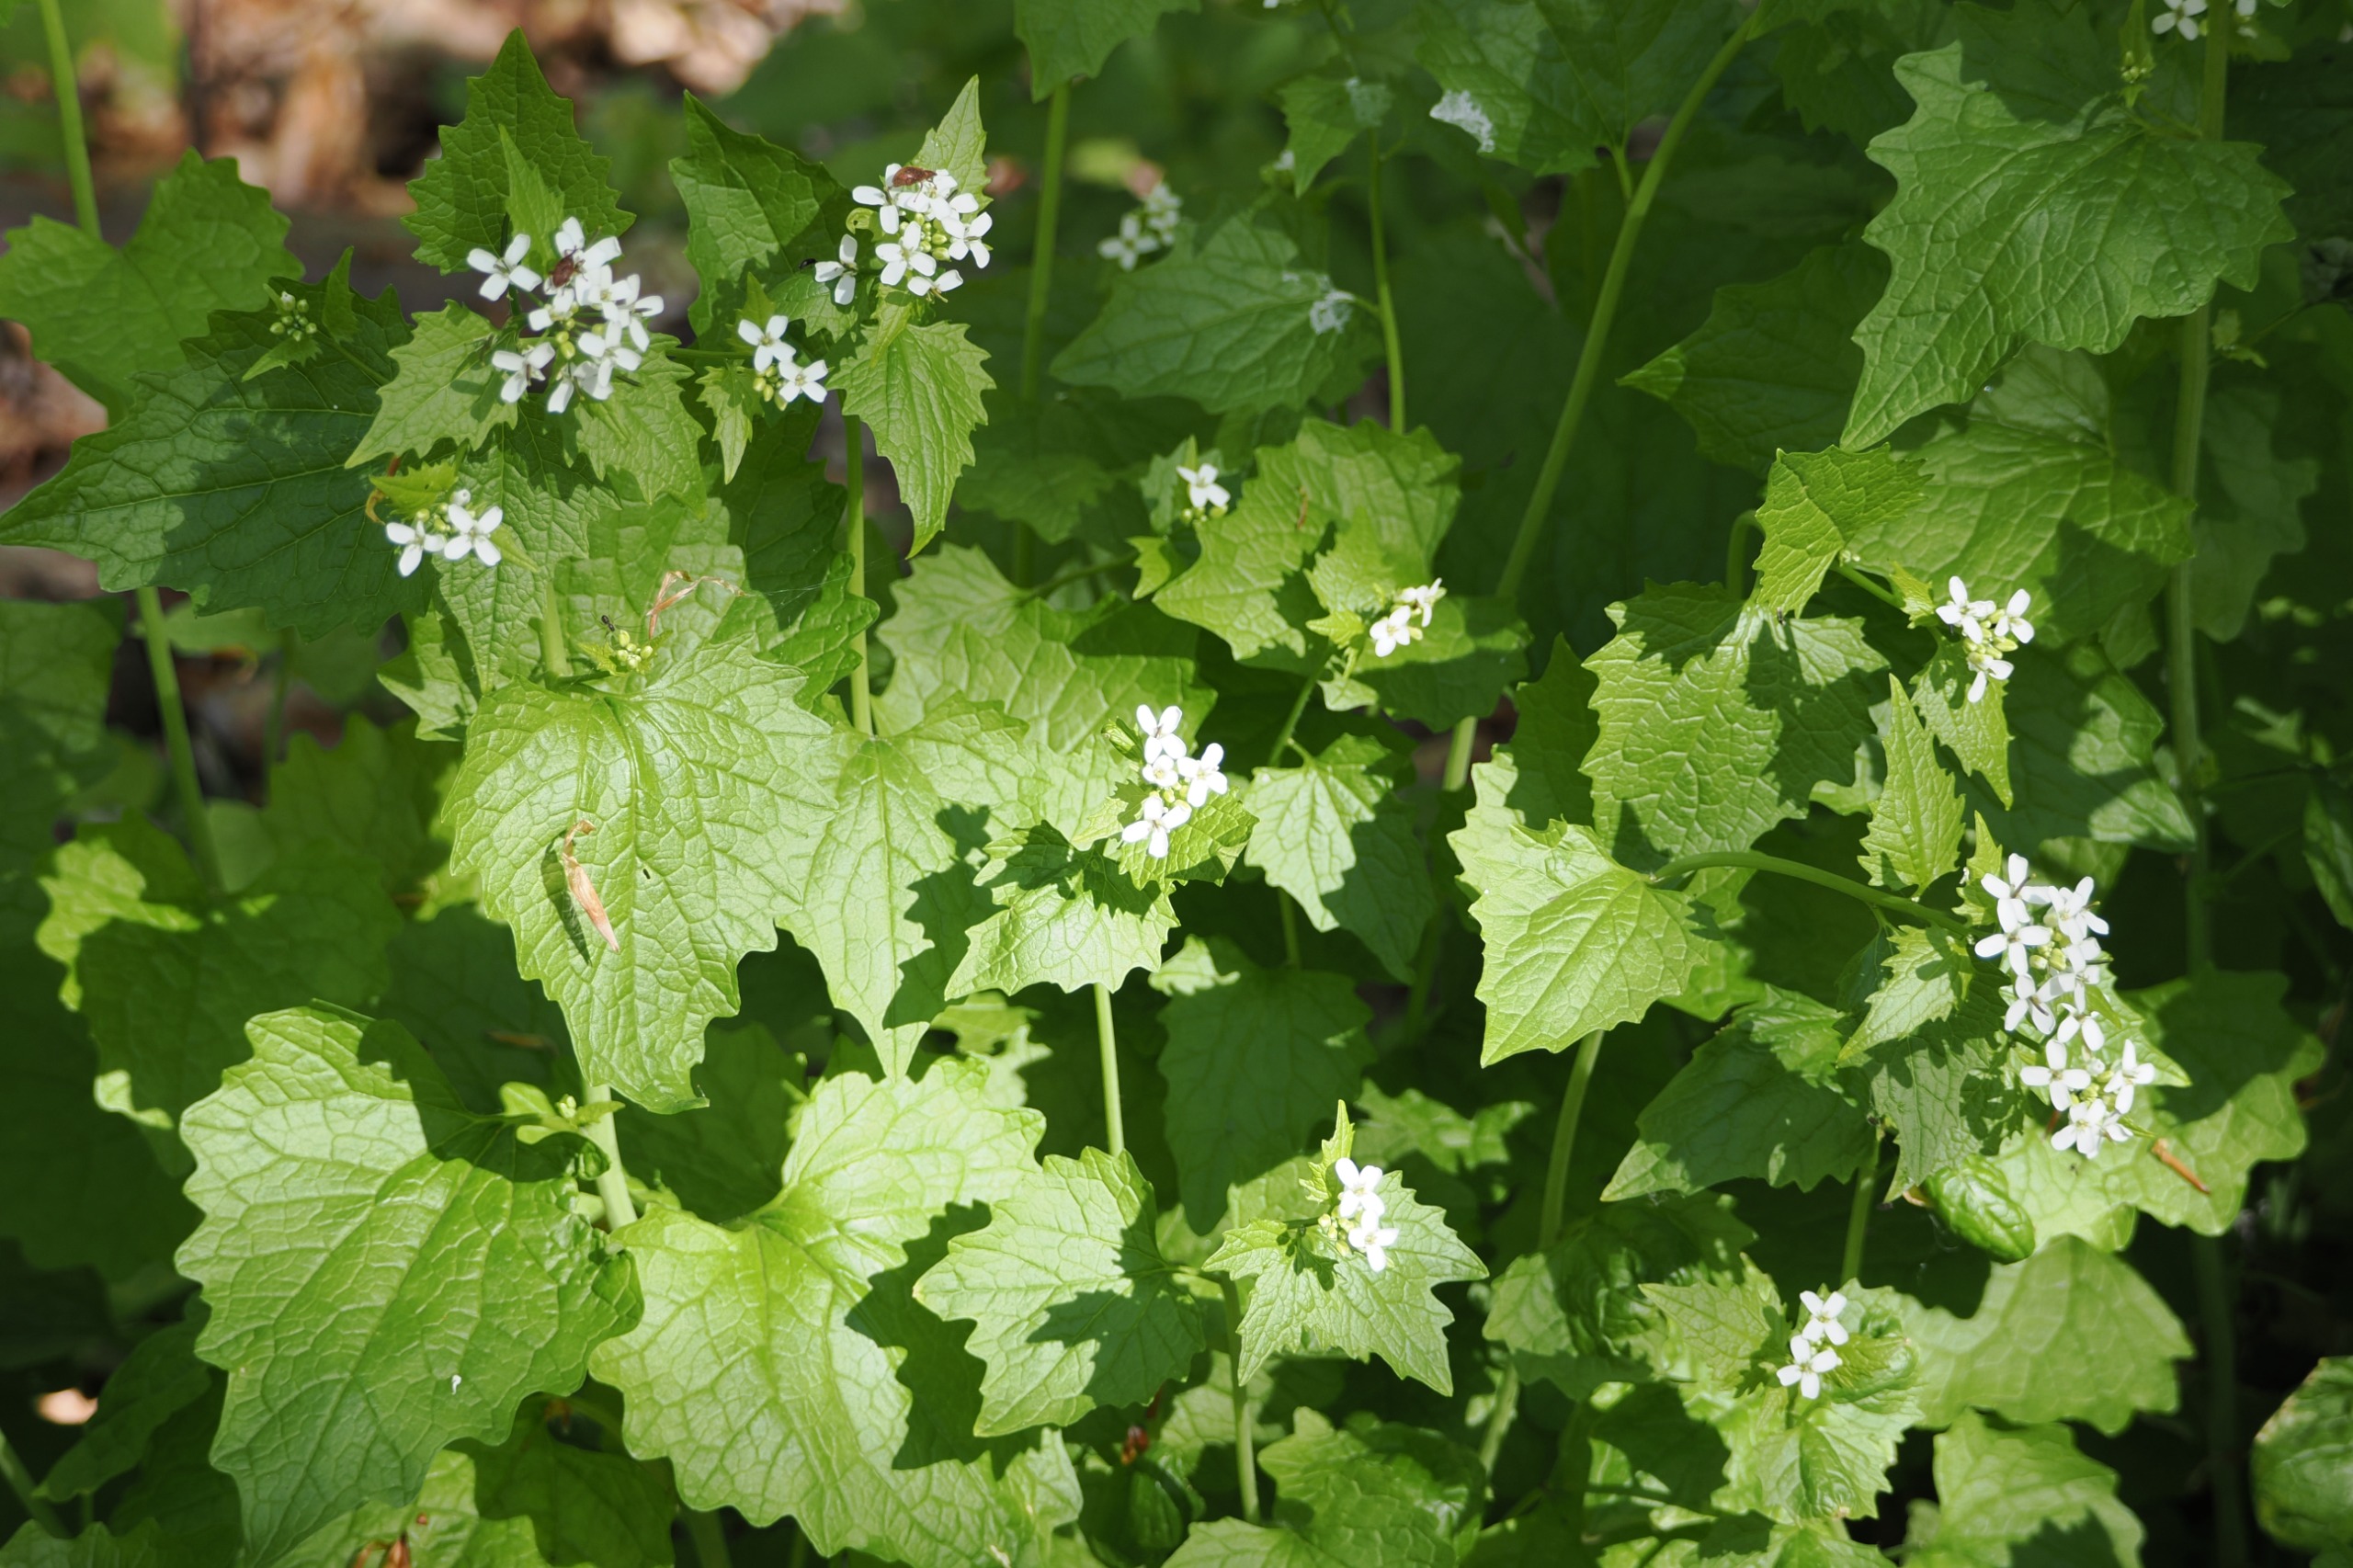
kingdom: Plantae
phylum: Tracheophyta
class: Magnoliopsida
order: Brassicales
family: Brassicaceae
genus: Alliaria
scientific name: Alliaria petiolata
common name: Løgkarse
